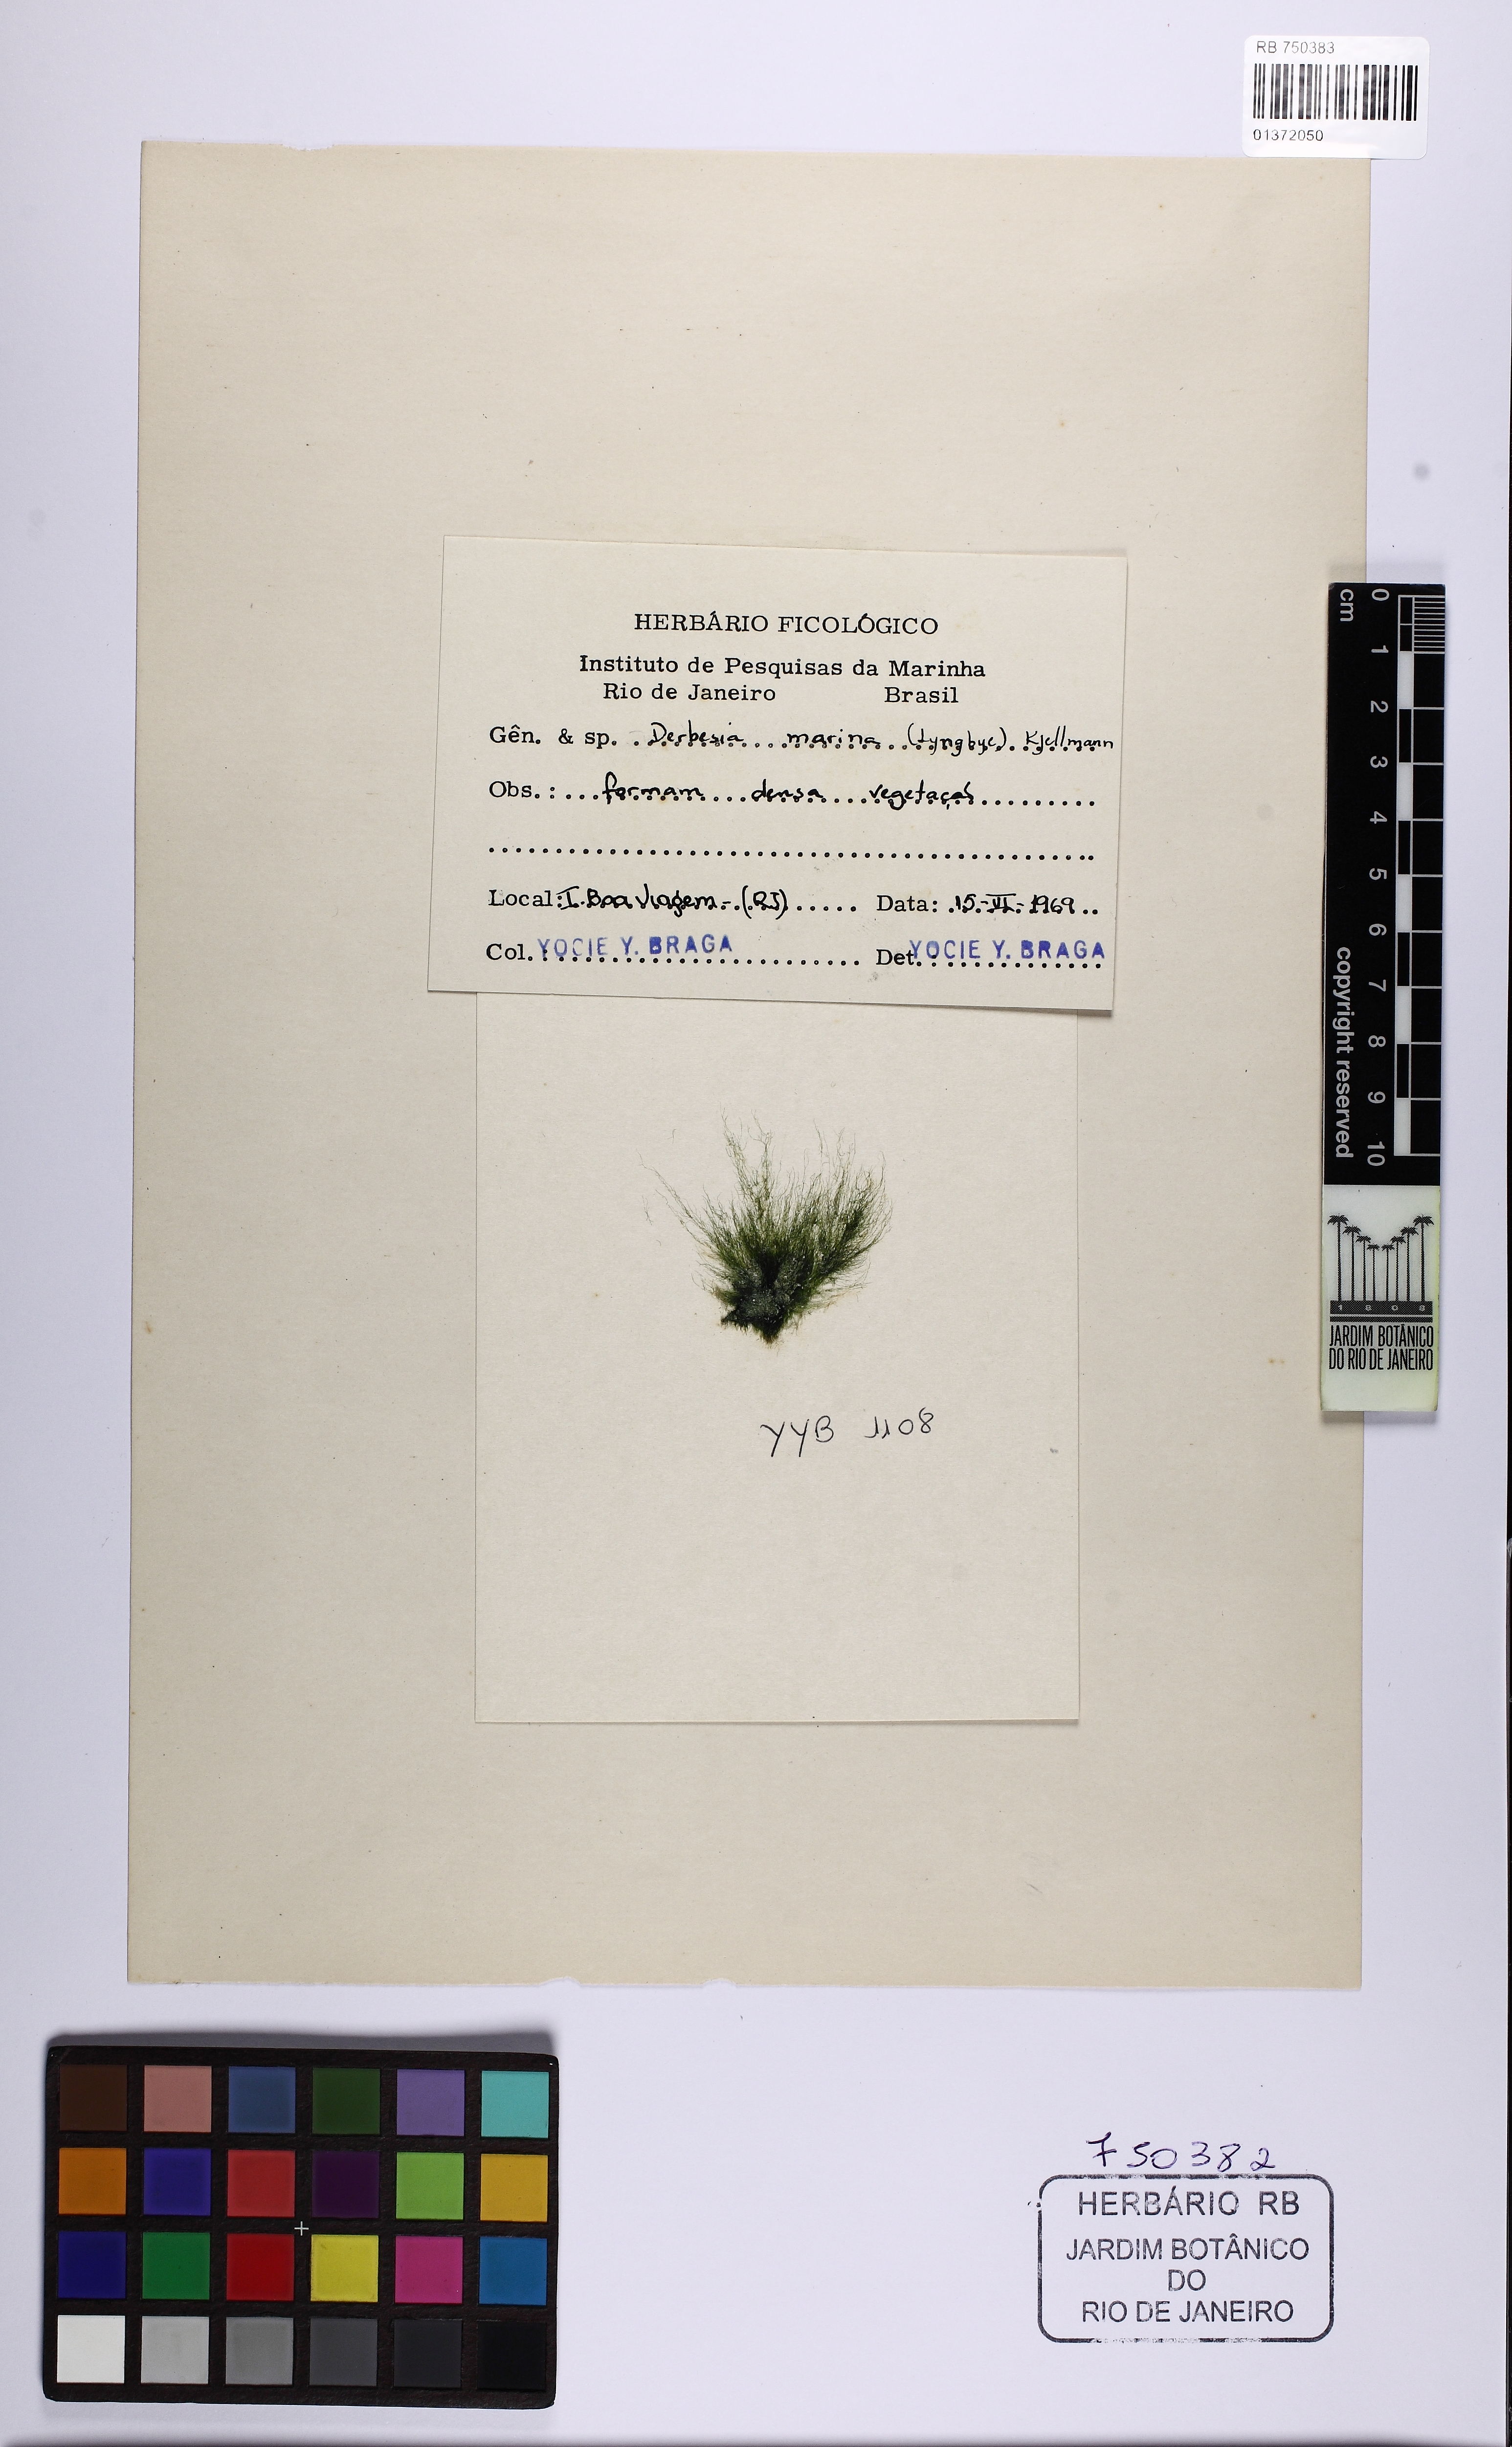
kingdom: Plantae
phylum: Chlorophyta
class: Ulvophyceae
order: Cladophorales
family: Cladophoraceae
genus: Chaetomorpha
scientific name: Chaetomorpha antennina
